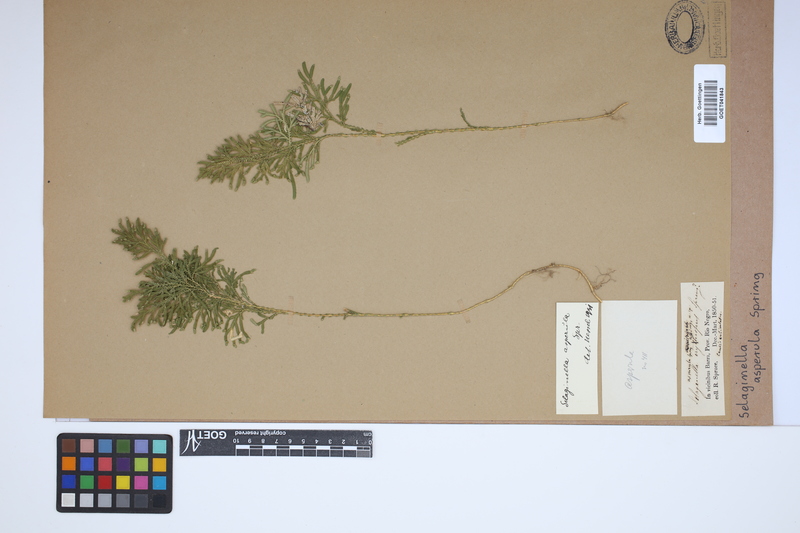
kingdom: Plantae
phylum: Tracheophyta
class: Lycopodiopsida
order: Selaginellales
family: Selaginellaceae
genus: Selaginella
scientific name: Selaginella asperula
